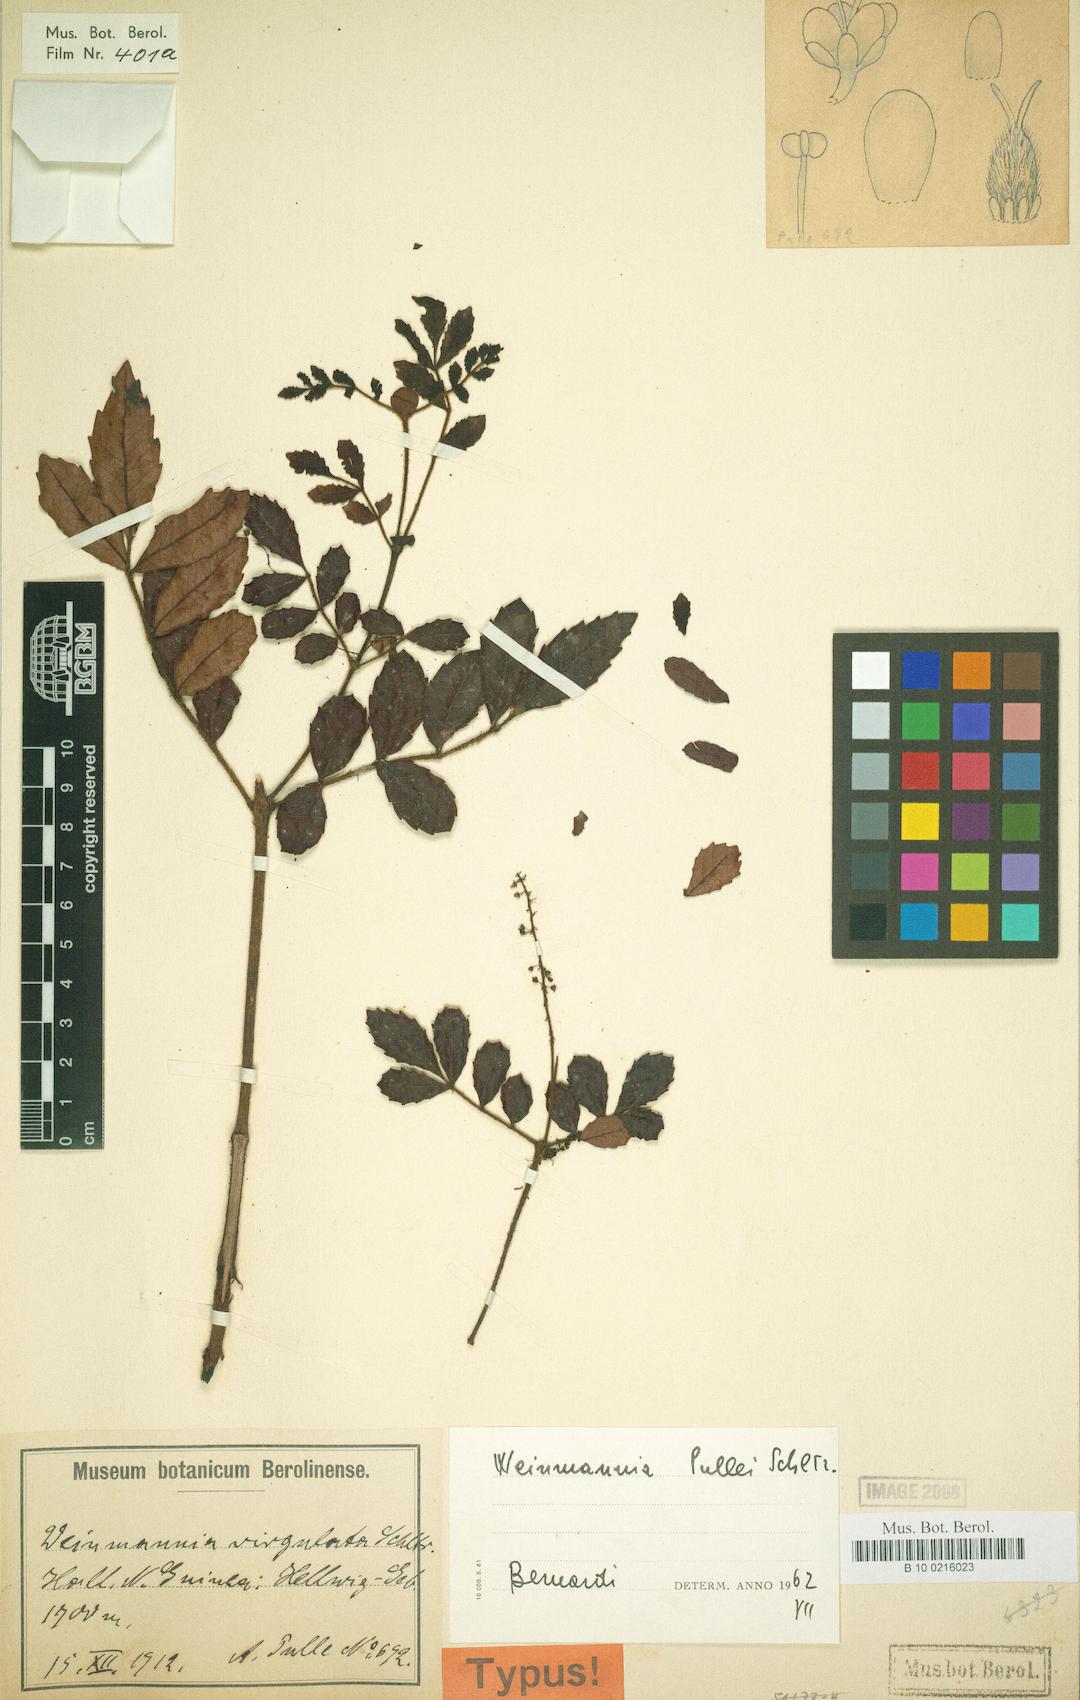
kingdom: Plantae
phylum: Tracheophyta
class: Magnoliopsida
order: Oxalidales
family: Cunoniaceae
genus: Pterophylla
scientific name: Pterophylla pullei
